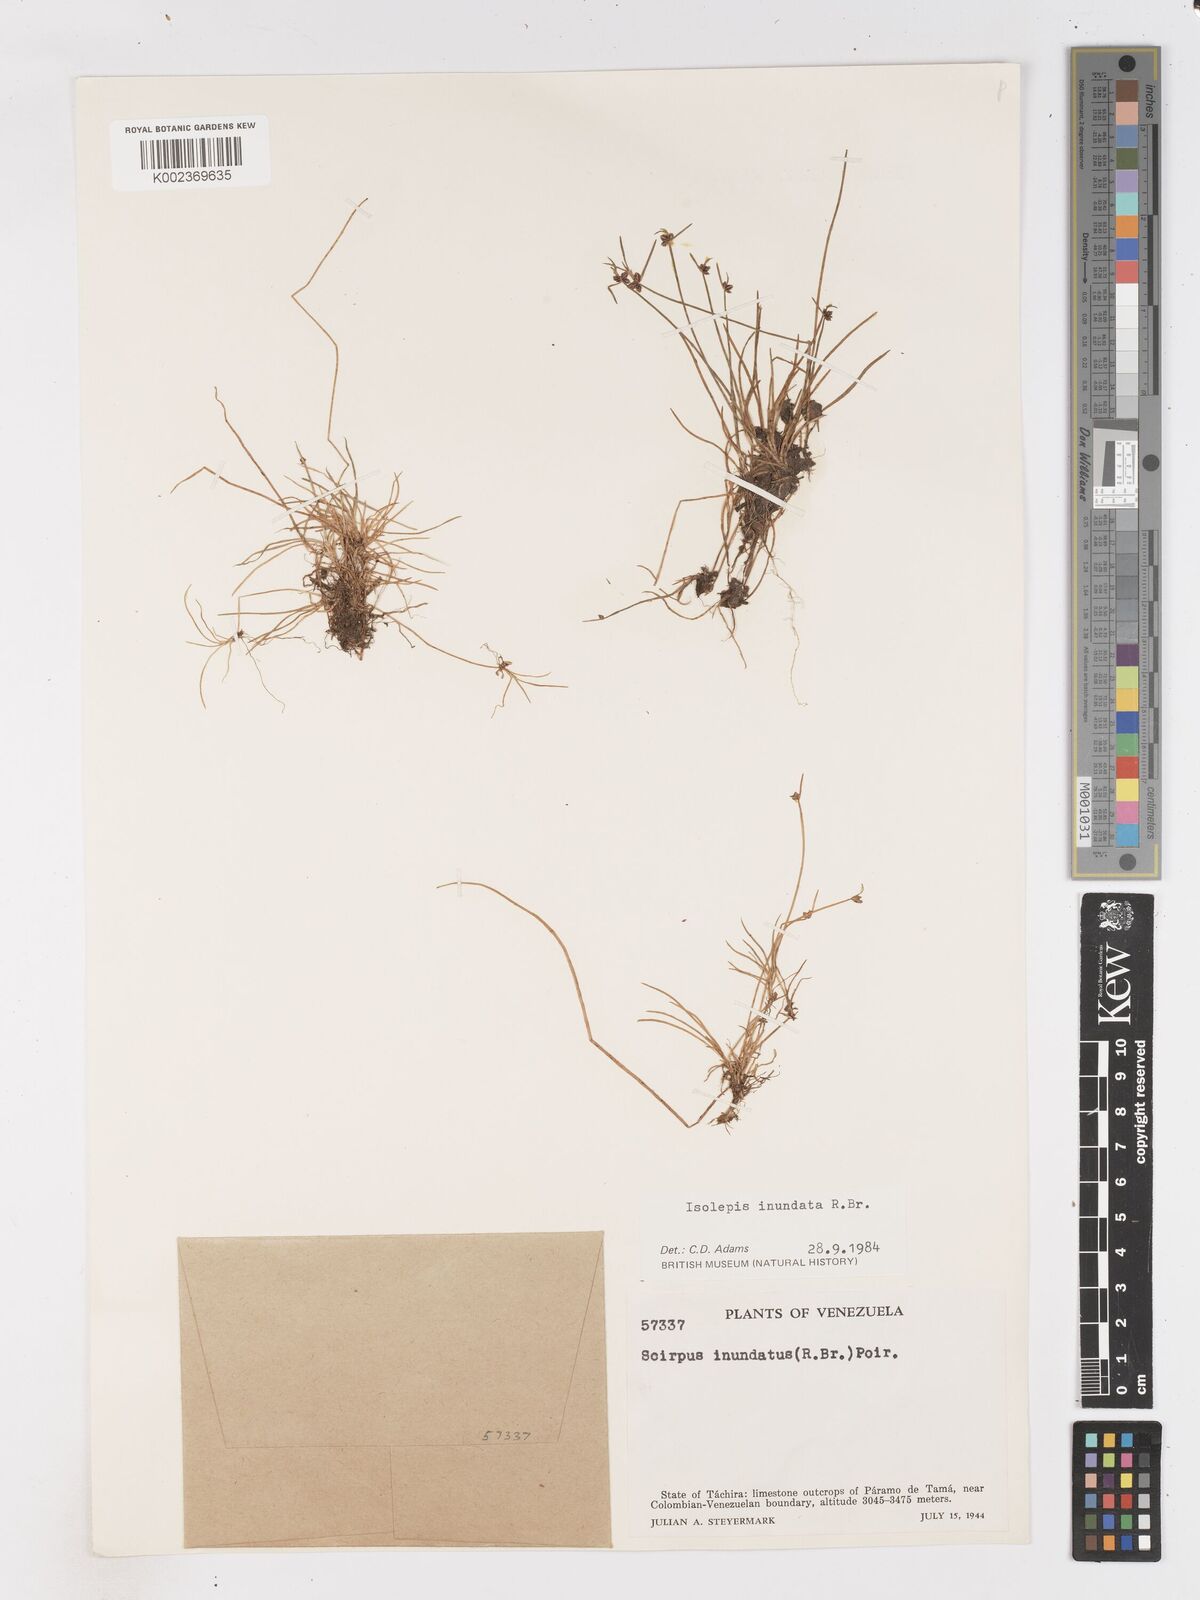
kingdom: Plantae
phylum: Tracheophyta
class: Liliopsida
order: Poales
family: Cyperaceae
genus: Isolepis
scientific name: Isolepis inundata
